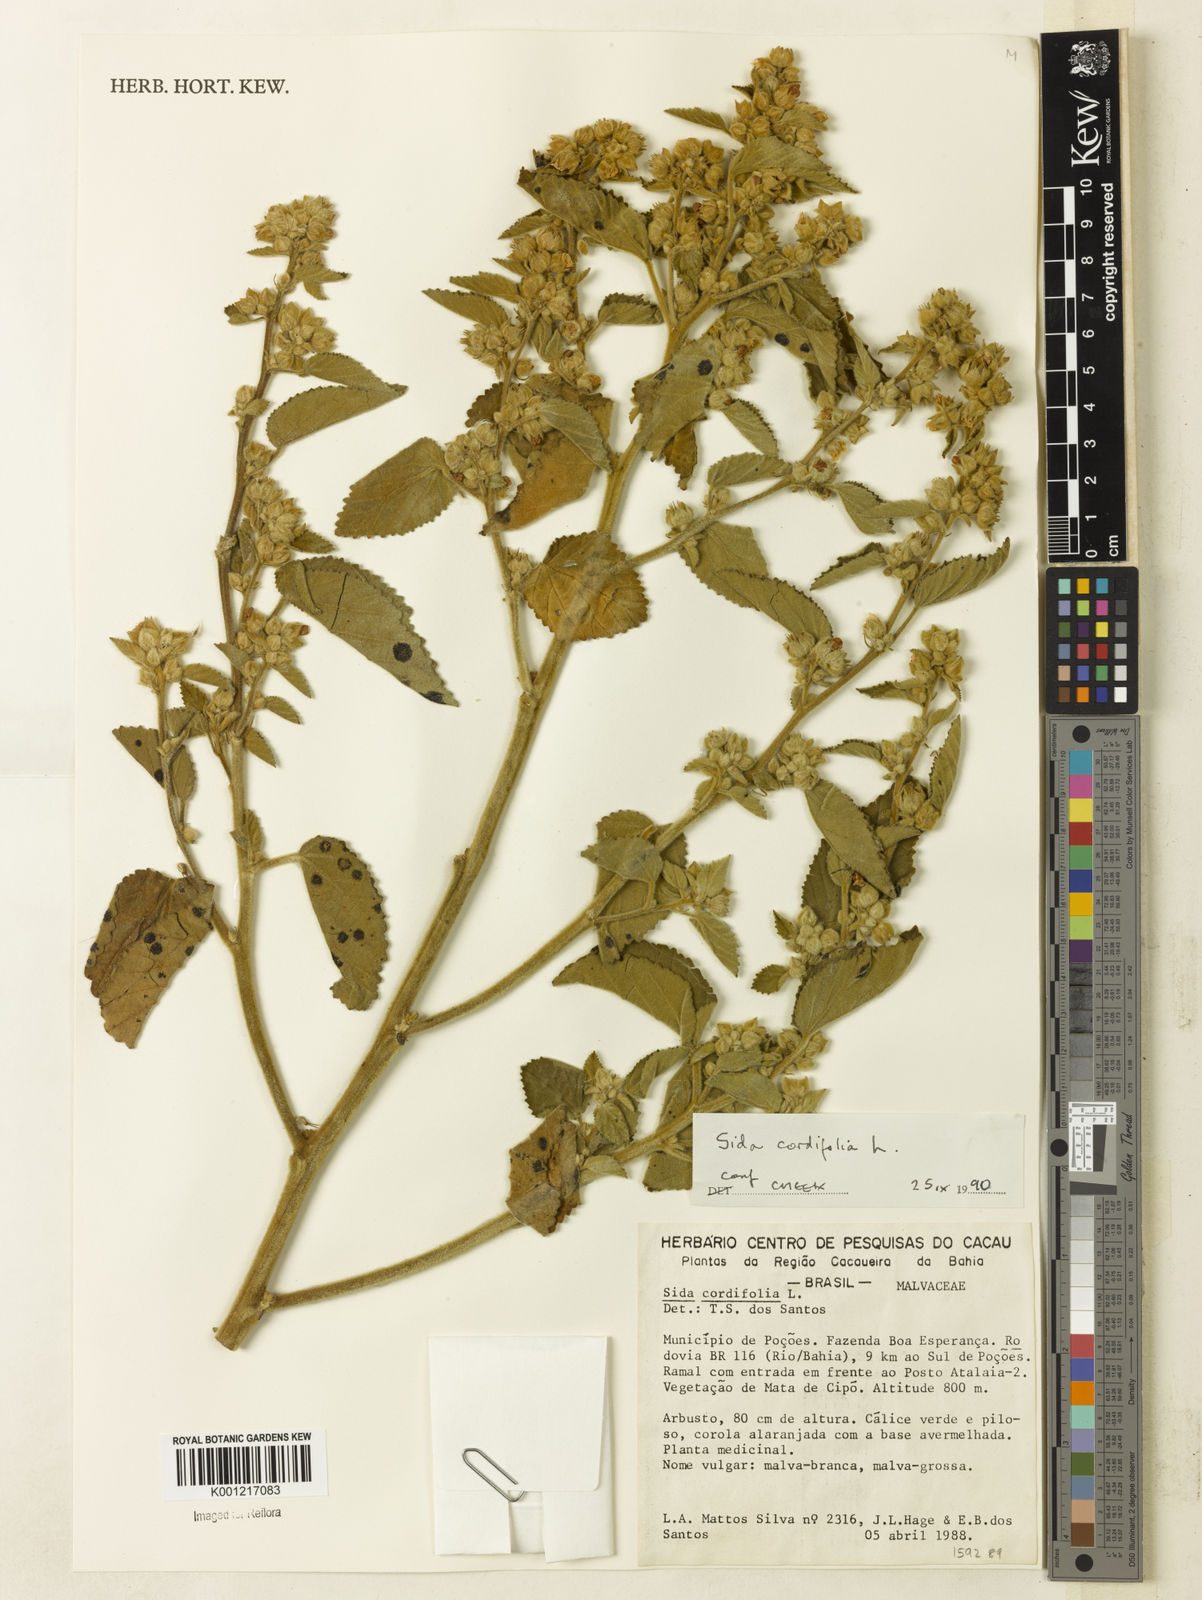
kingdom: Plantae
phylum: Tracheophyta
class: Magnoliopsida
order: Malvales
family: Malvaceae
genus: Sida
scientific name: Sida cordifolia
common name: Ilima
